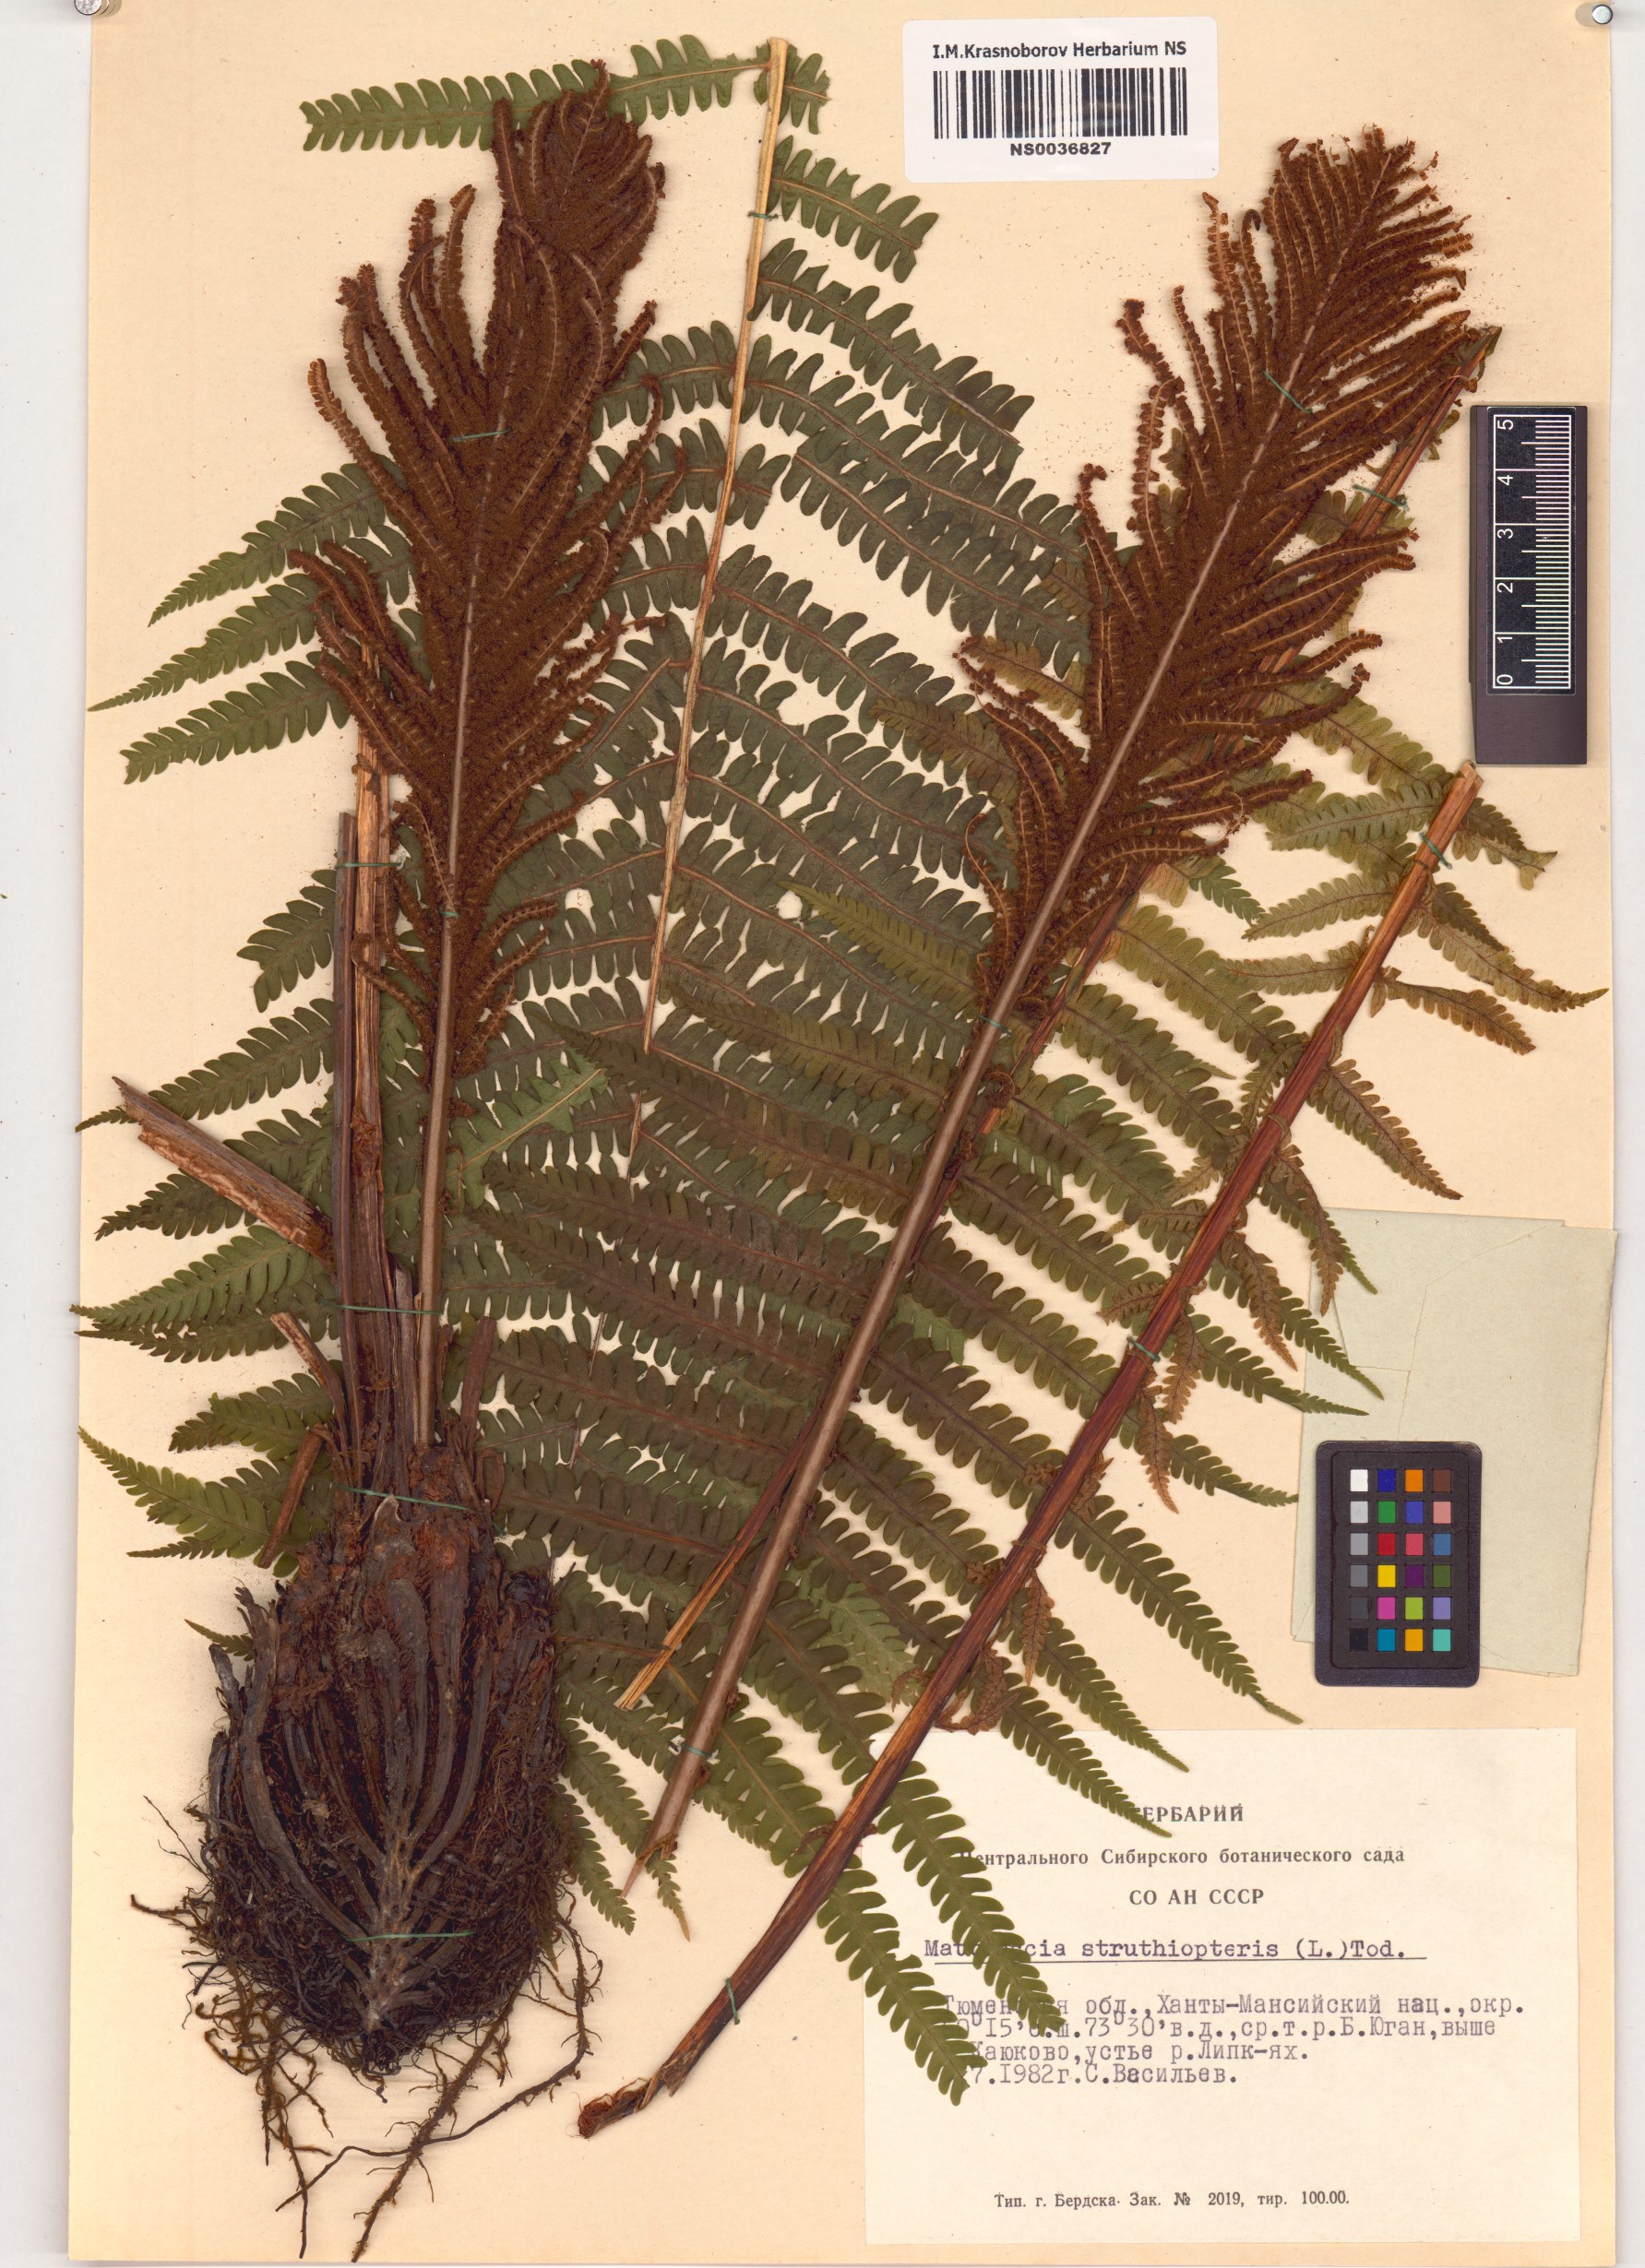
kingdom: Plantae
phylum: Tracheophyta
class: Polypodiopsida
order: Polypodiales
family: Onocleaceae
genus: Matteuccia
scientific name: Matteuccia struthiopteris
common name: Ostrich fern
